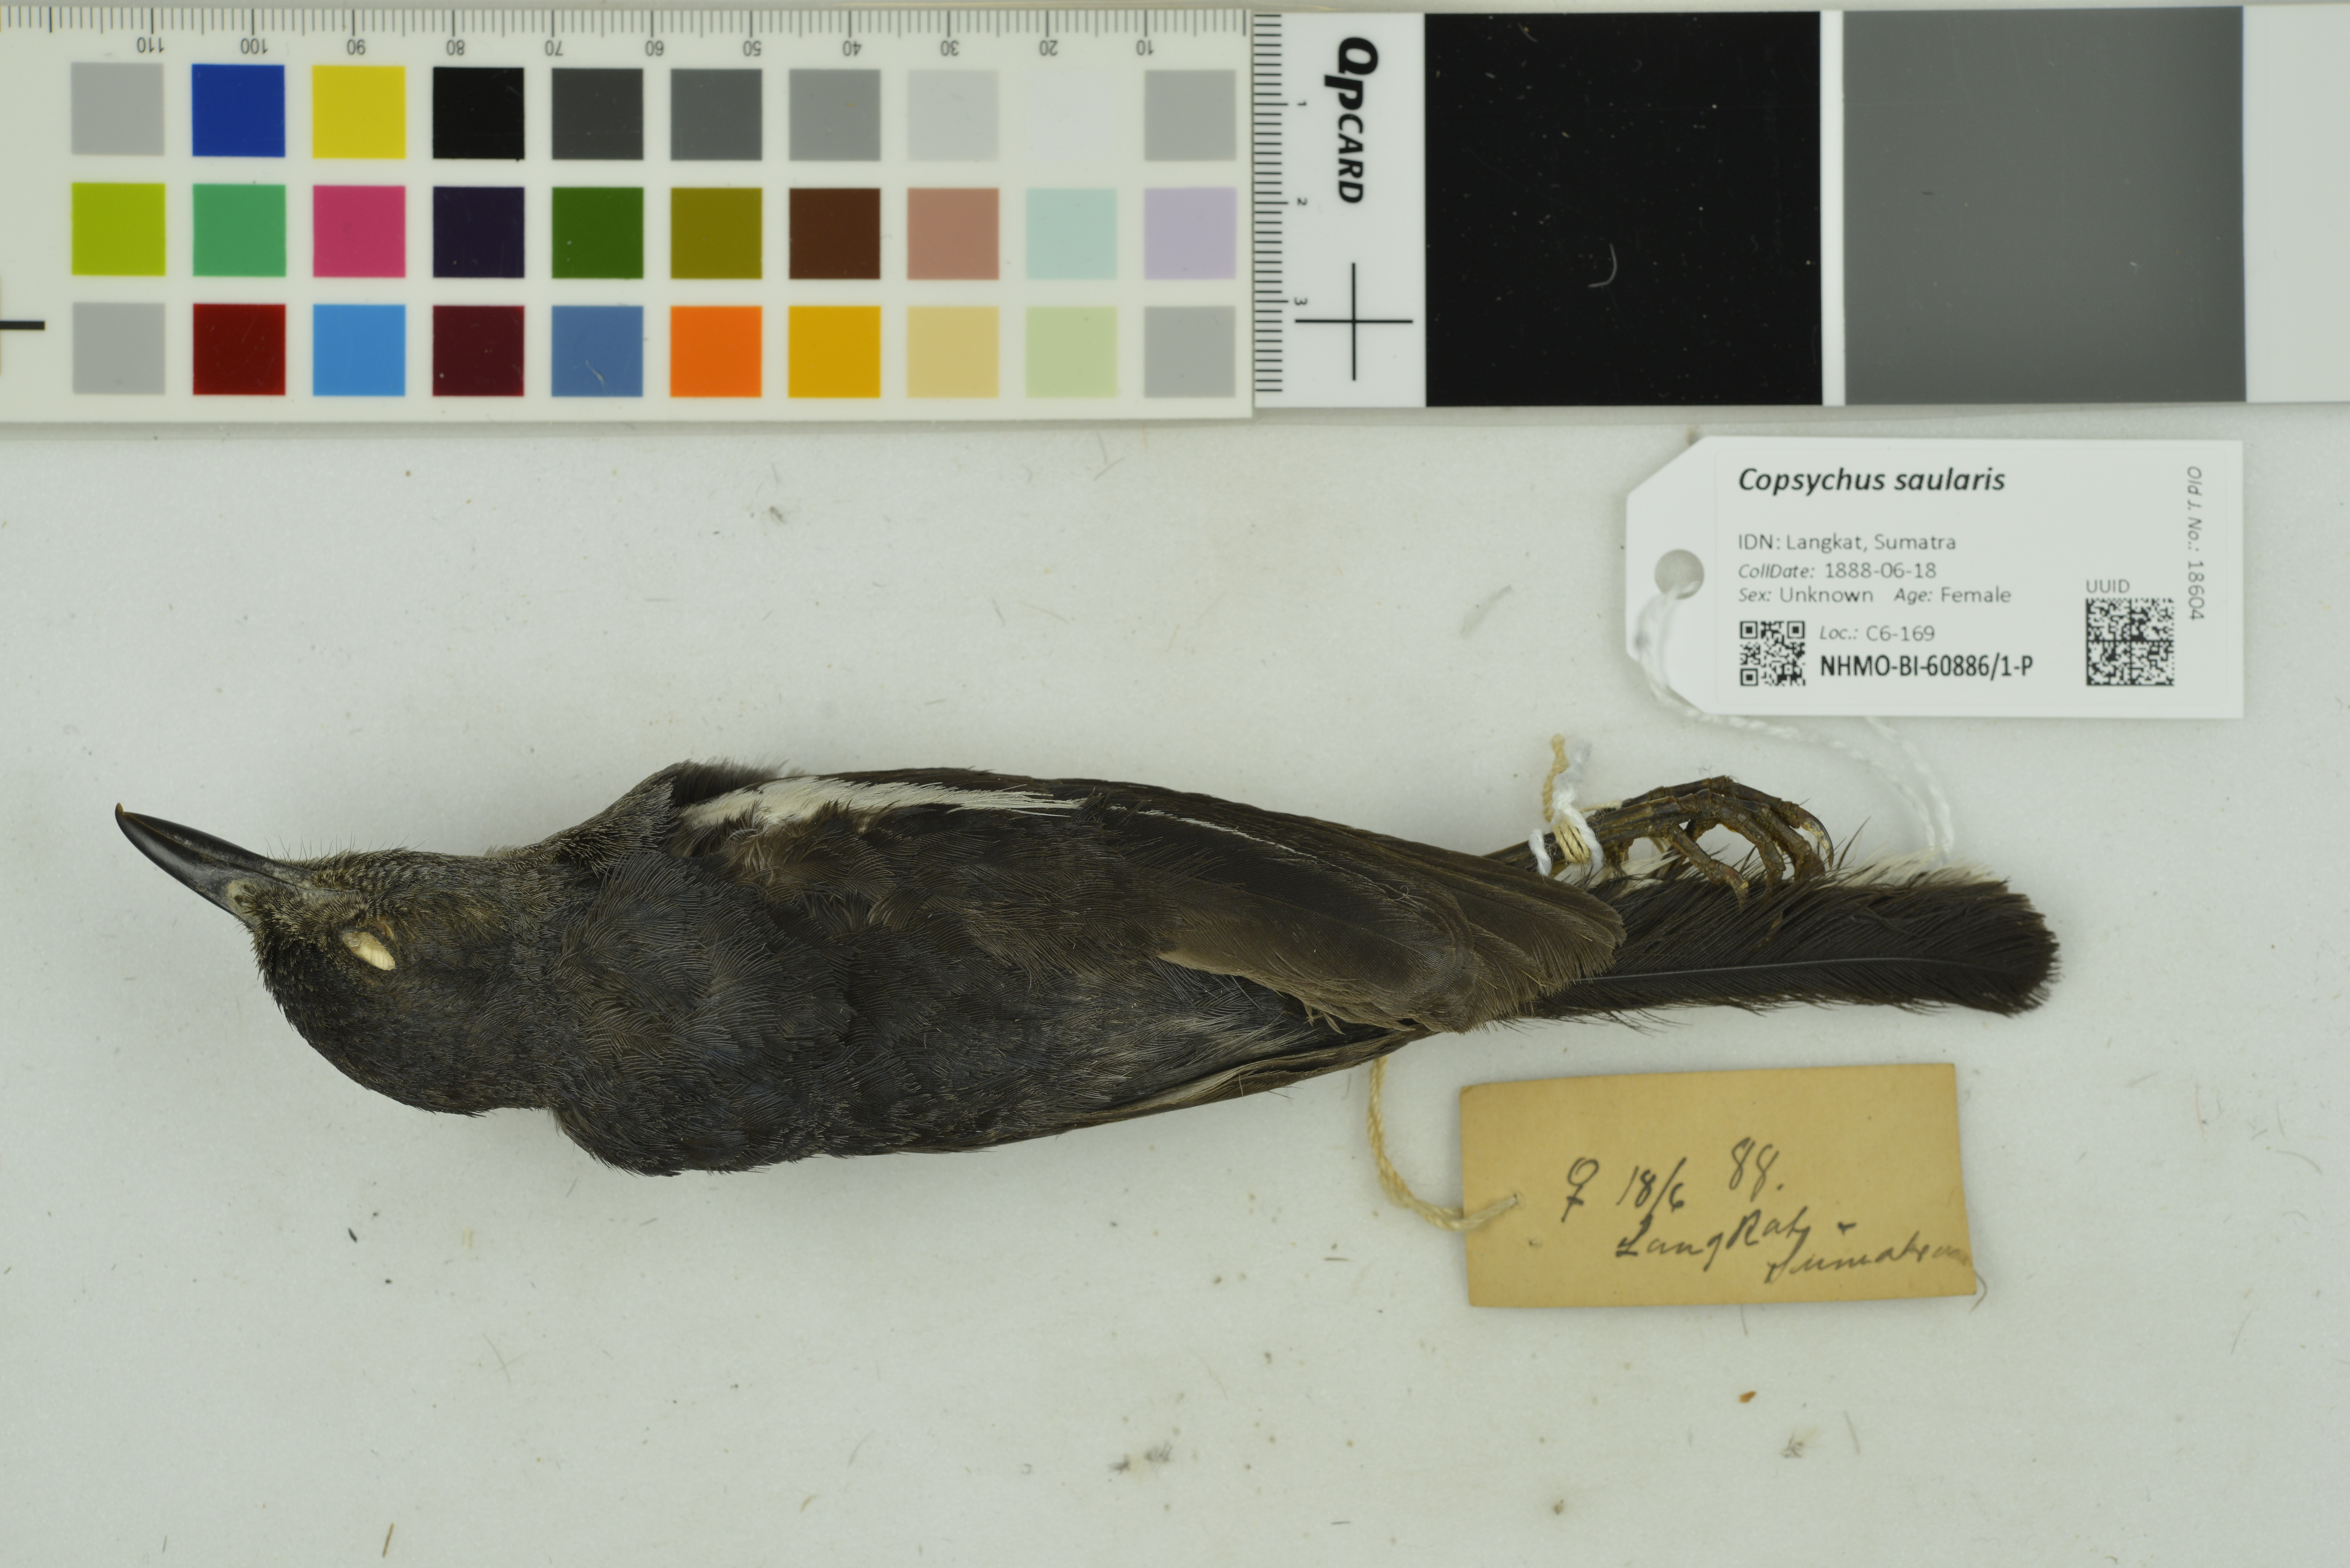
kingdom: Animalia
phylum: Chordata
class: Aves
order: Passeriformes
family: Muscicapidae
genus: Copsychus
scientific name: Copsychus saularis
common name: Oriental magpie-robin
